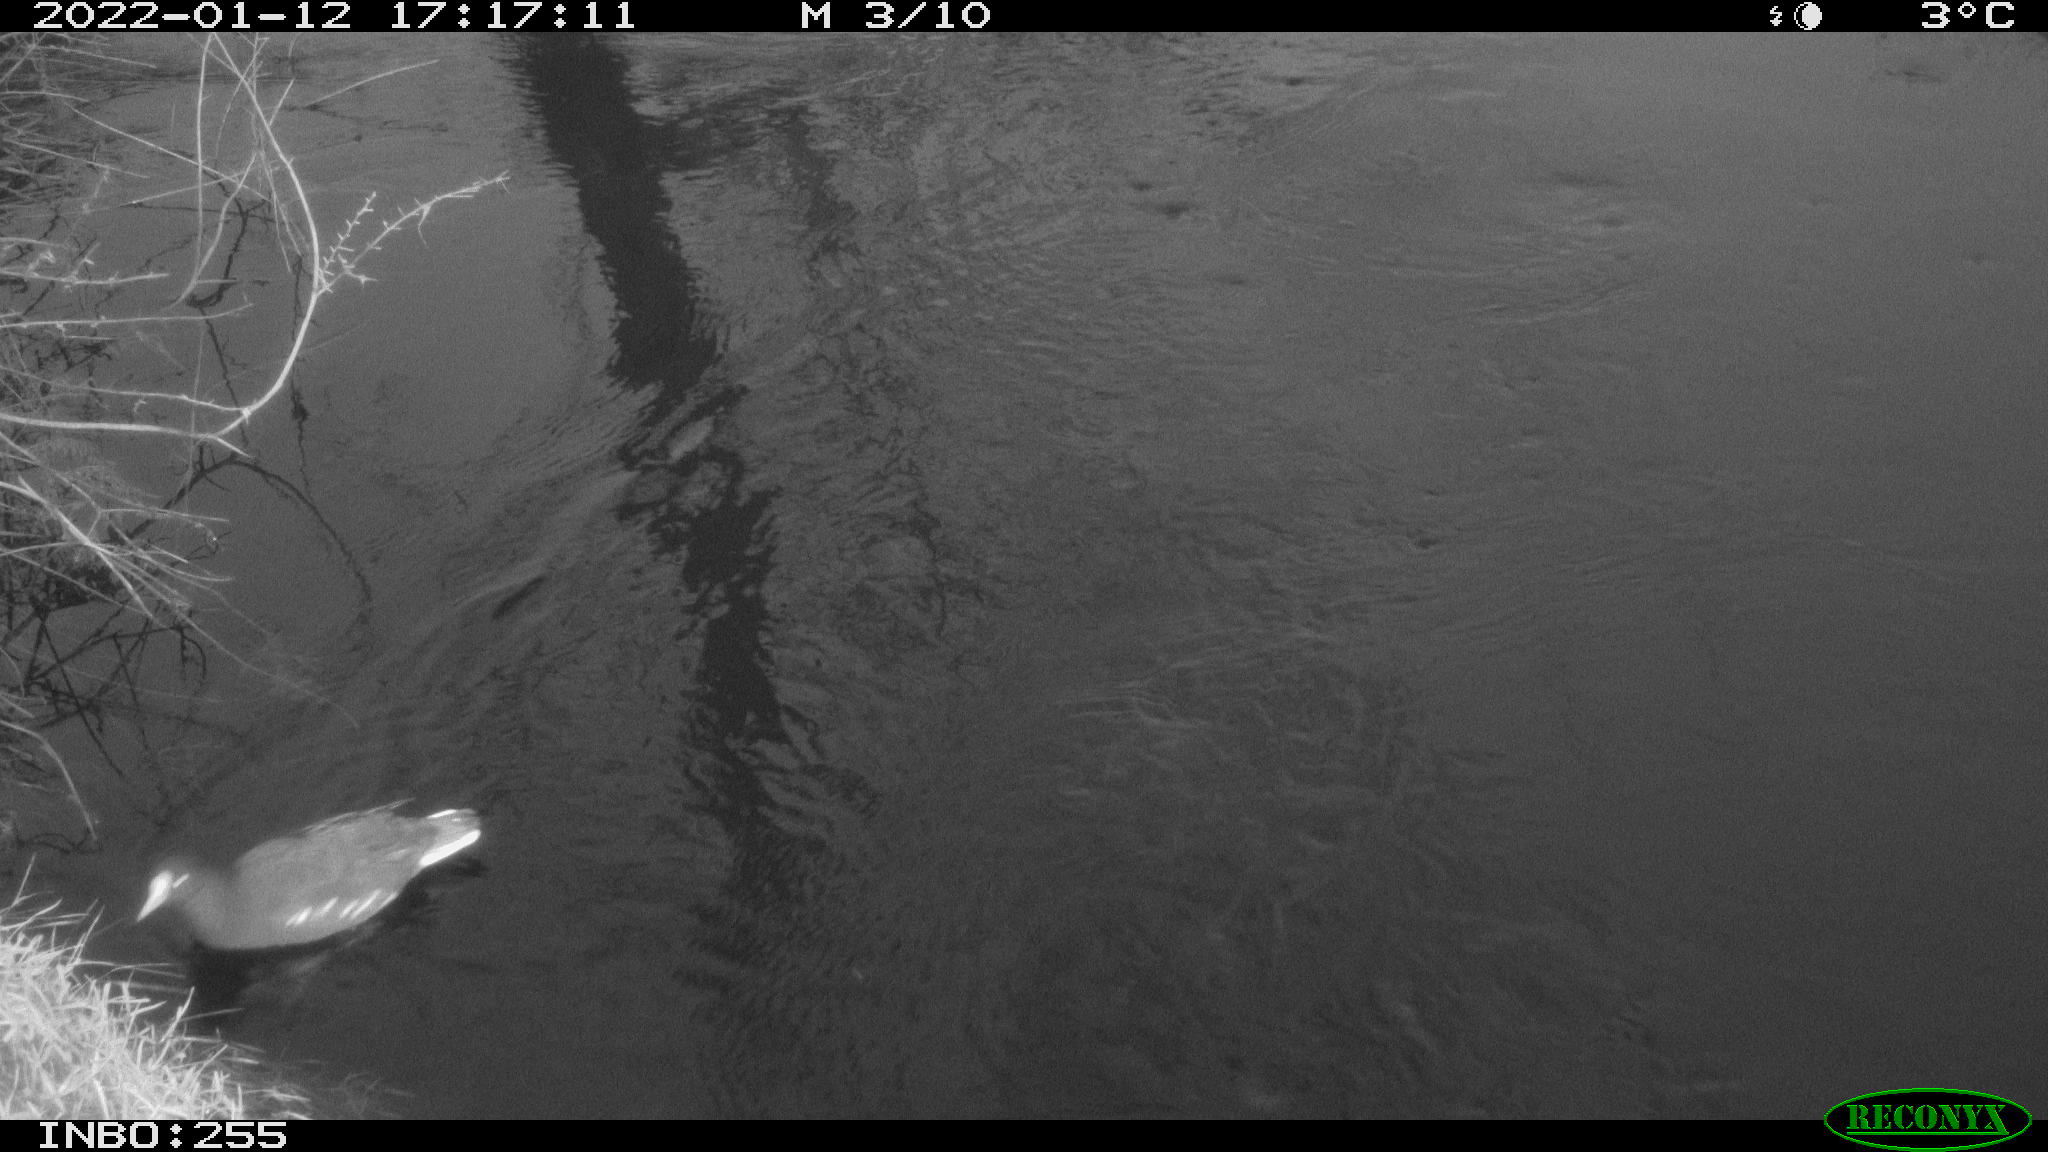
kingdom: Animalia
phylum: Chordata
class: Aves
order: Gruiformes
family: Rallidae
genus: Fulica
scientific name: Fulica atra
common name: Eurasian coot
